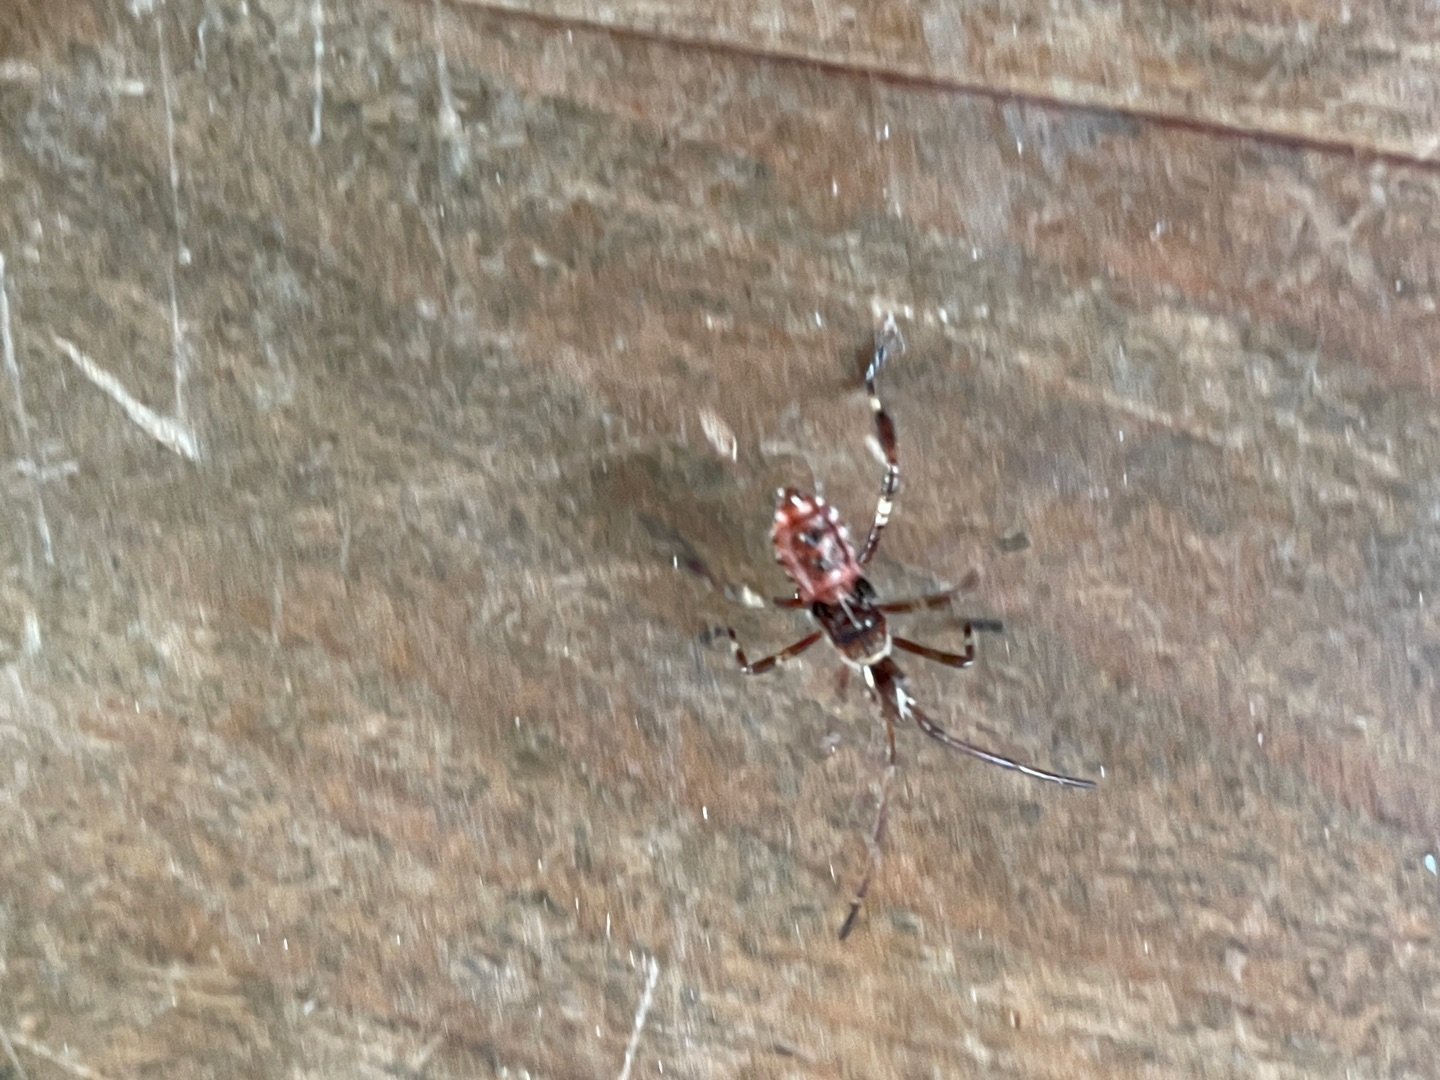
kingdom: Animalia
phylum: Arthropoda
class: Insecta
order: Hemiptera
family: Coreidae
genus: Leptoglossus
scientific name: Leptoglossus occidentalis
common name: Amerikansk fyrretæge
